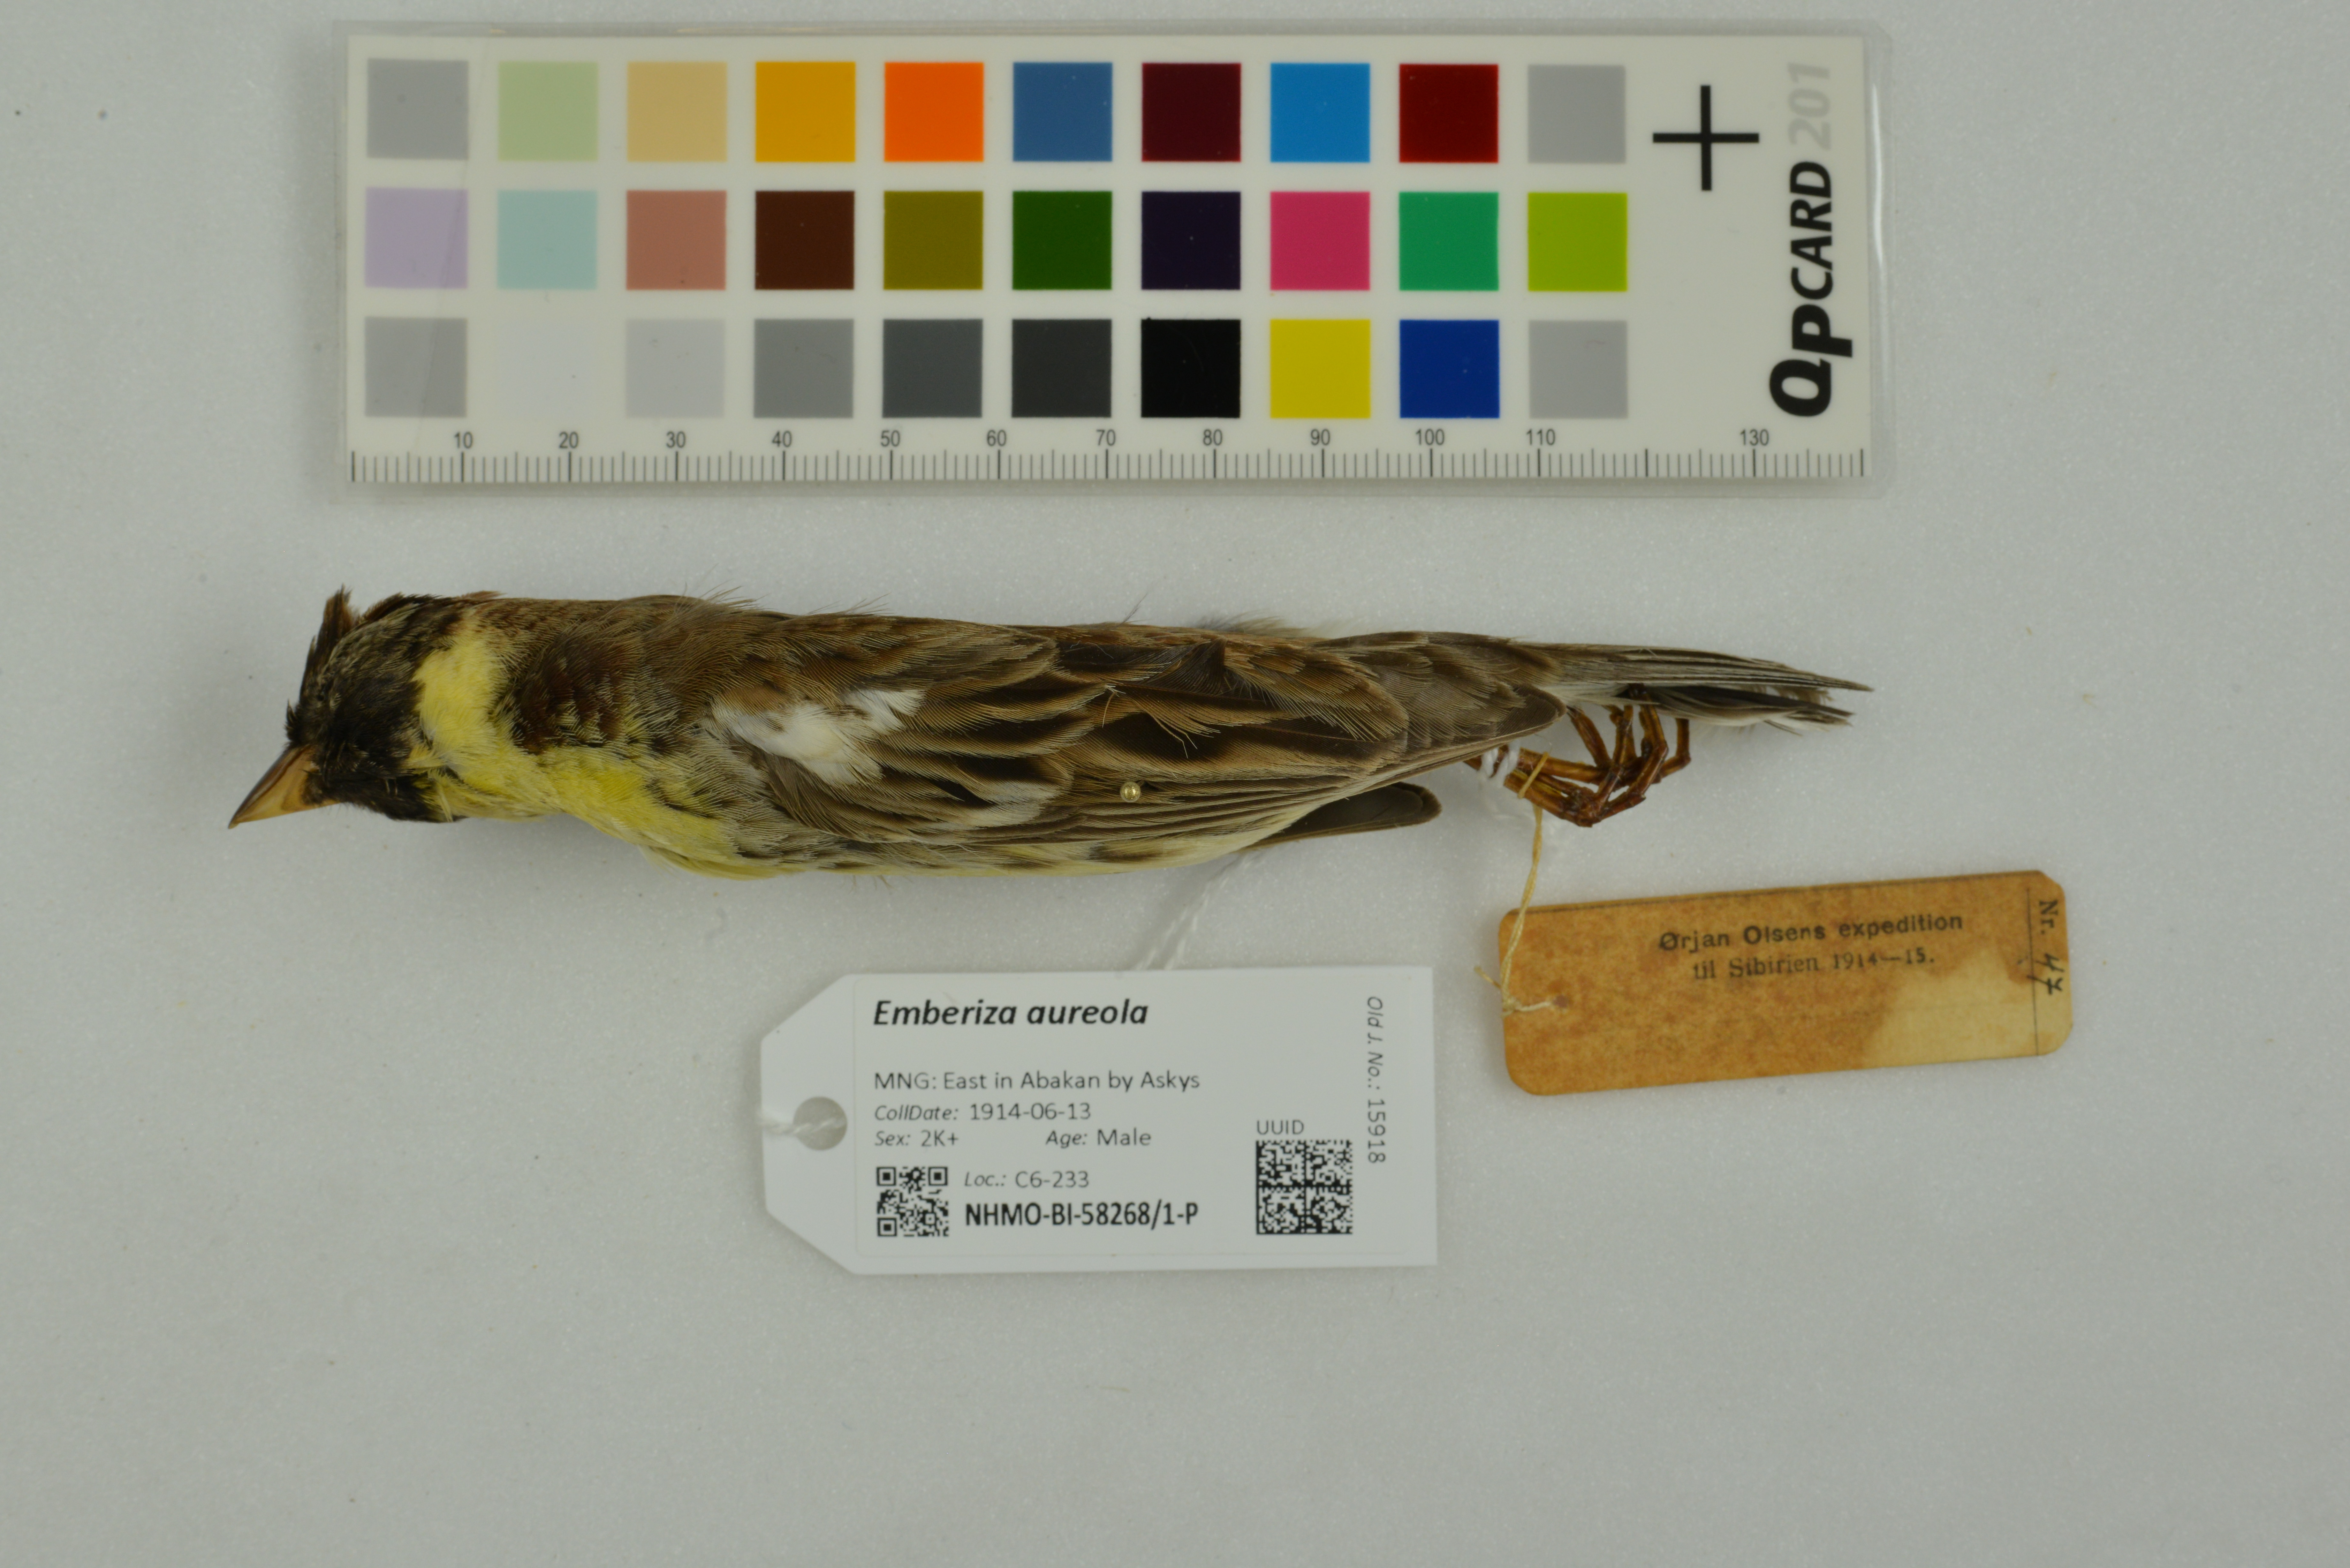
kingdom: Animalia
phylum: Chordata
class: Aves
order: Passeriformes
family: Emberizidae
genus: Emberiza
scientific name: Emberiza aureola
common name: Yellow-breasted bunting
